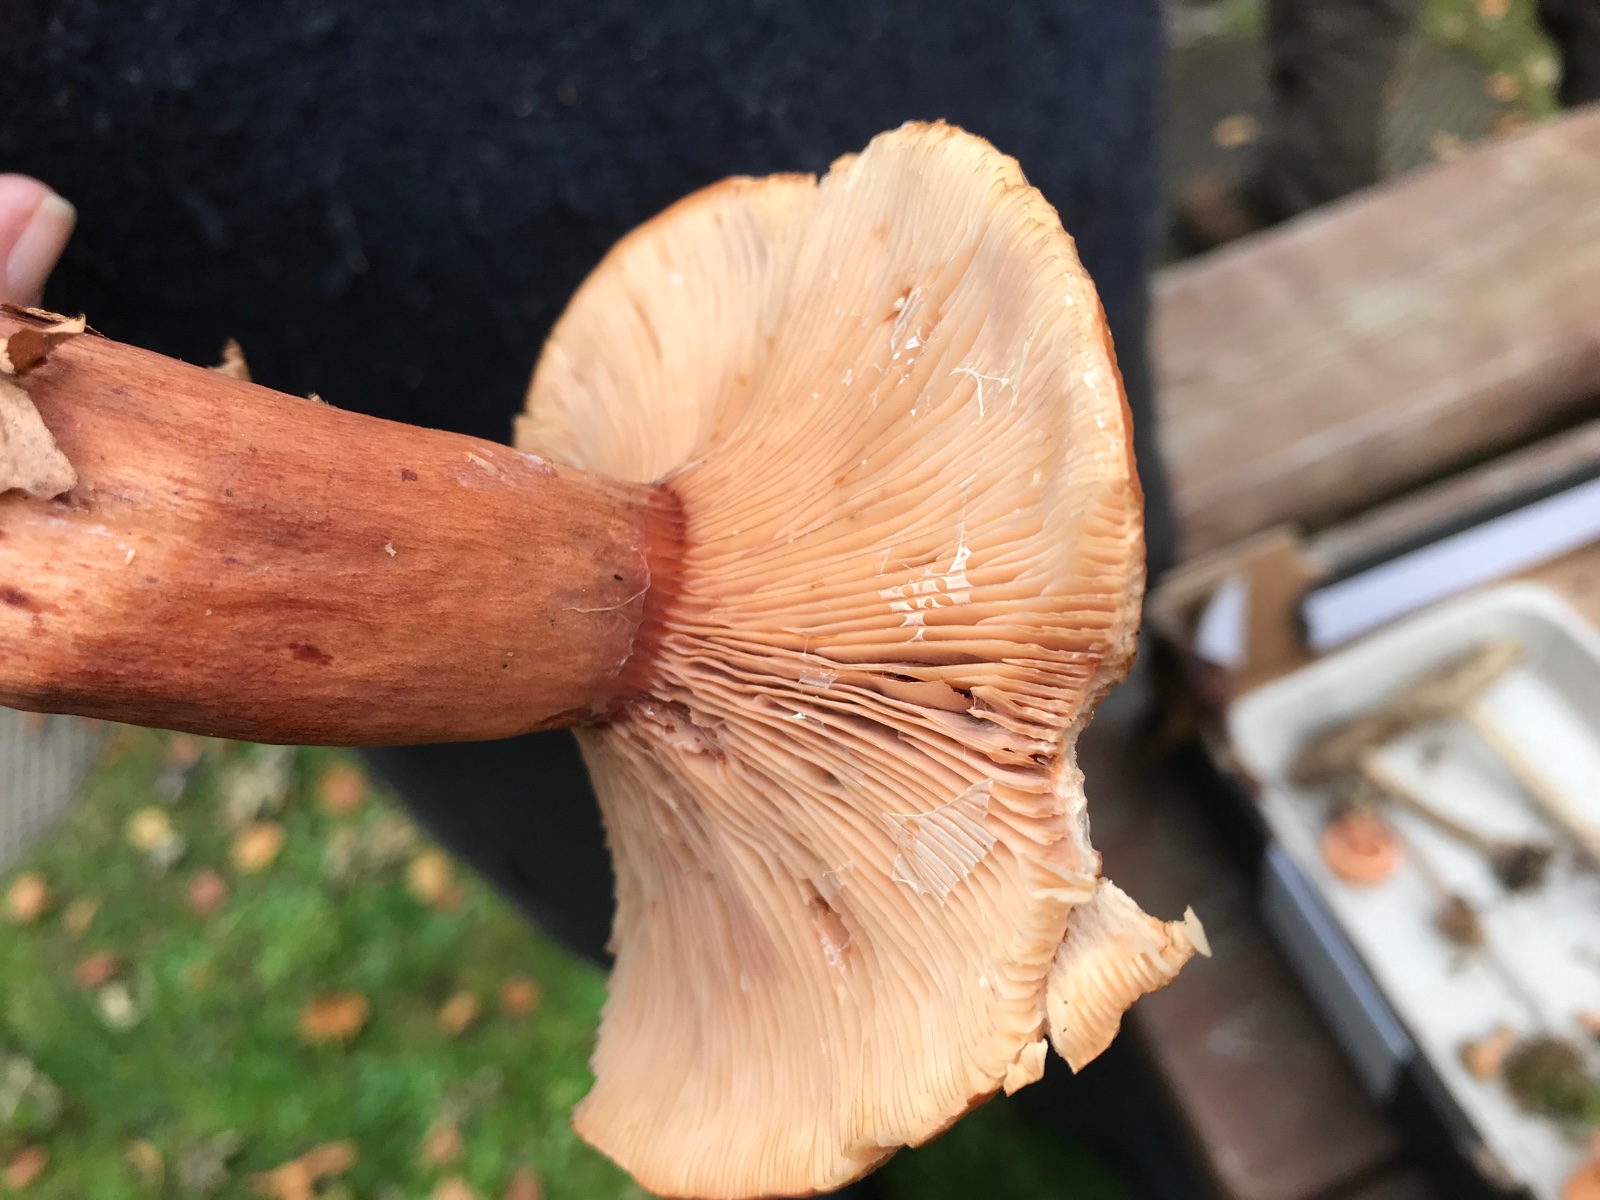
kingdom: Fungi
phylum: Basidiomycota
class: Agaricomycetes
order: Russulales
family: Russulaceae
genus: Lactarius
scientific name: Lactarius rubrocinctus
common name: halsbånd-mælkehat
